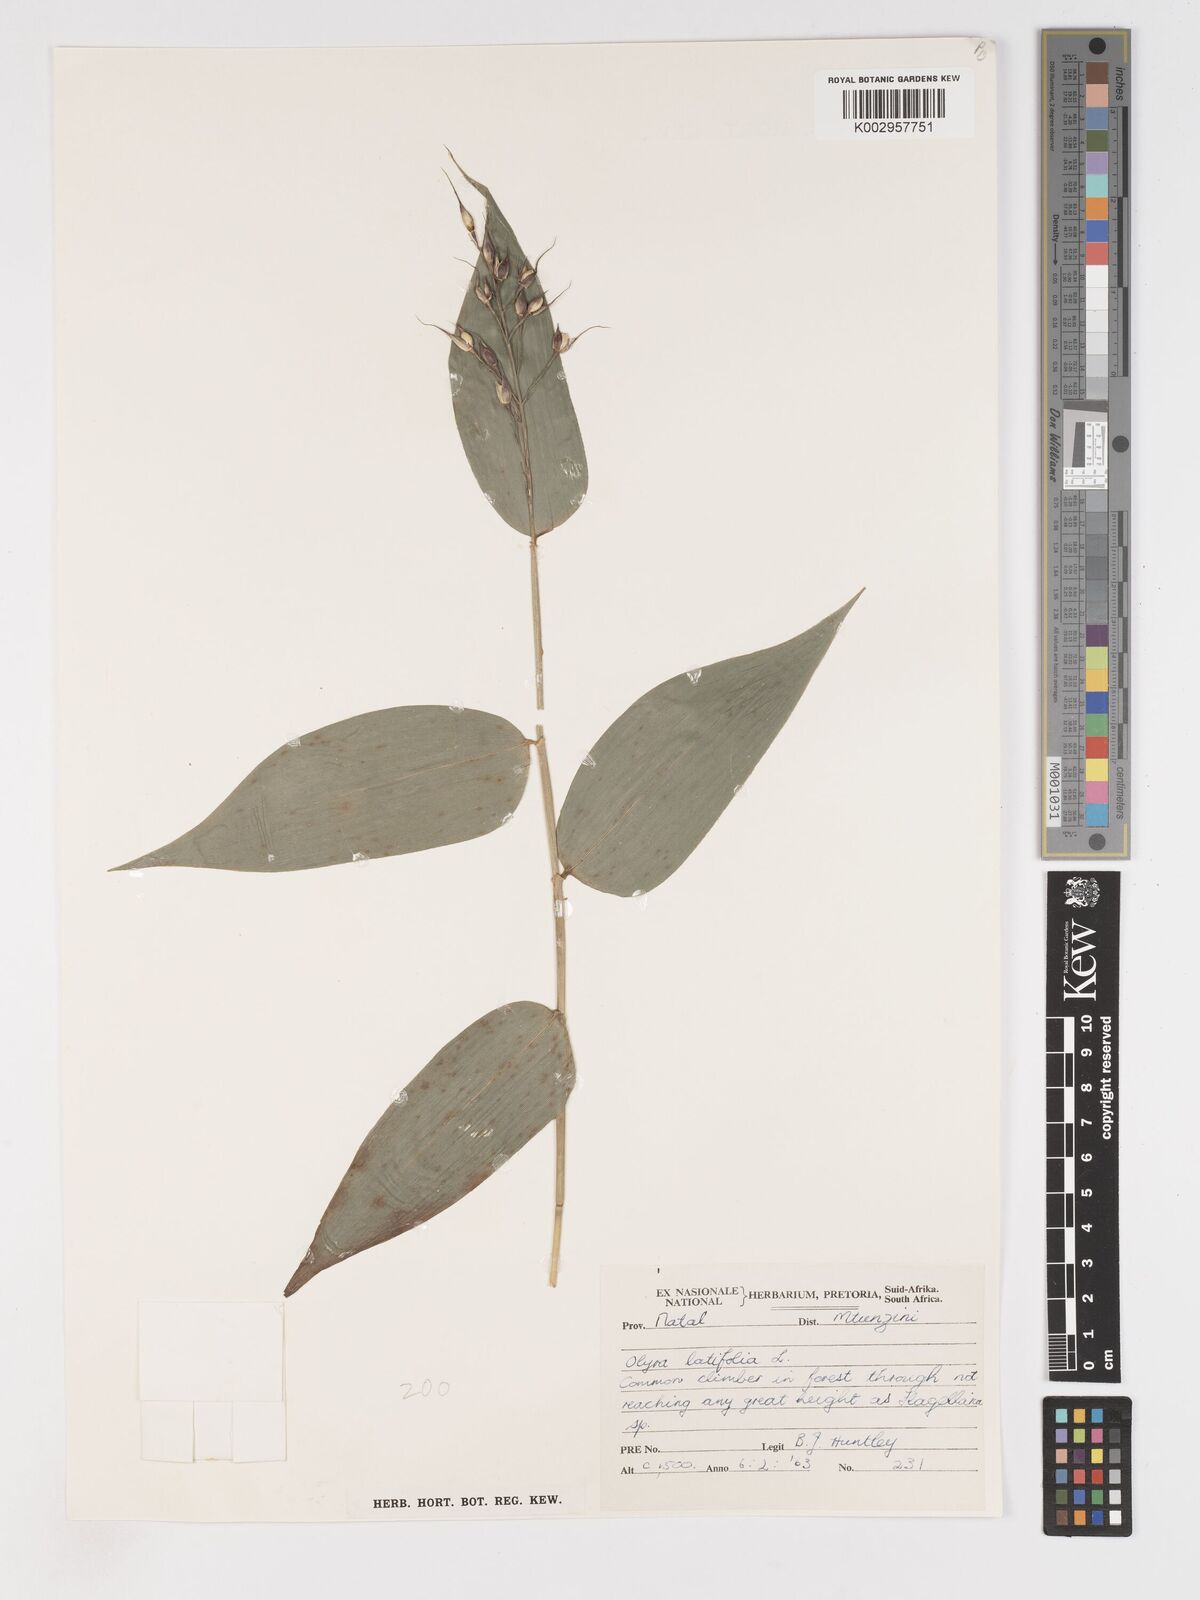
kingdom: Plantae
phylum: Tracheophyta
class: Liliopsida
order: Poales
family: Poaceae
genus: Olyra
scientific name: Olyra latifolia
